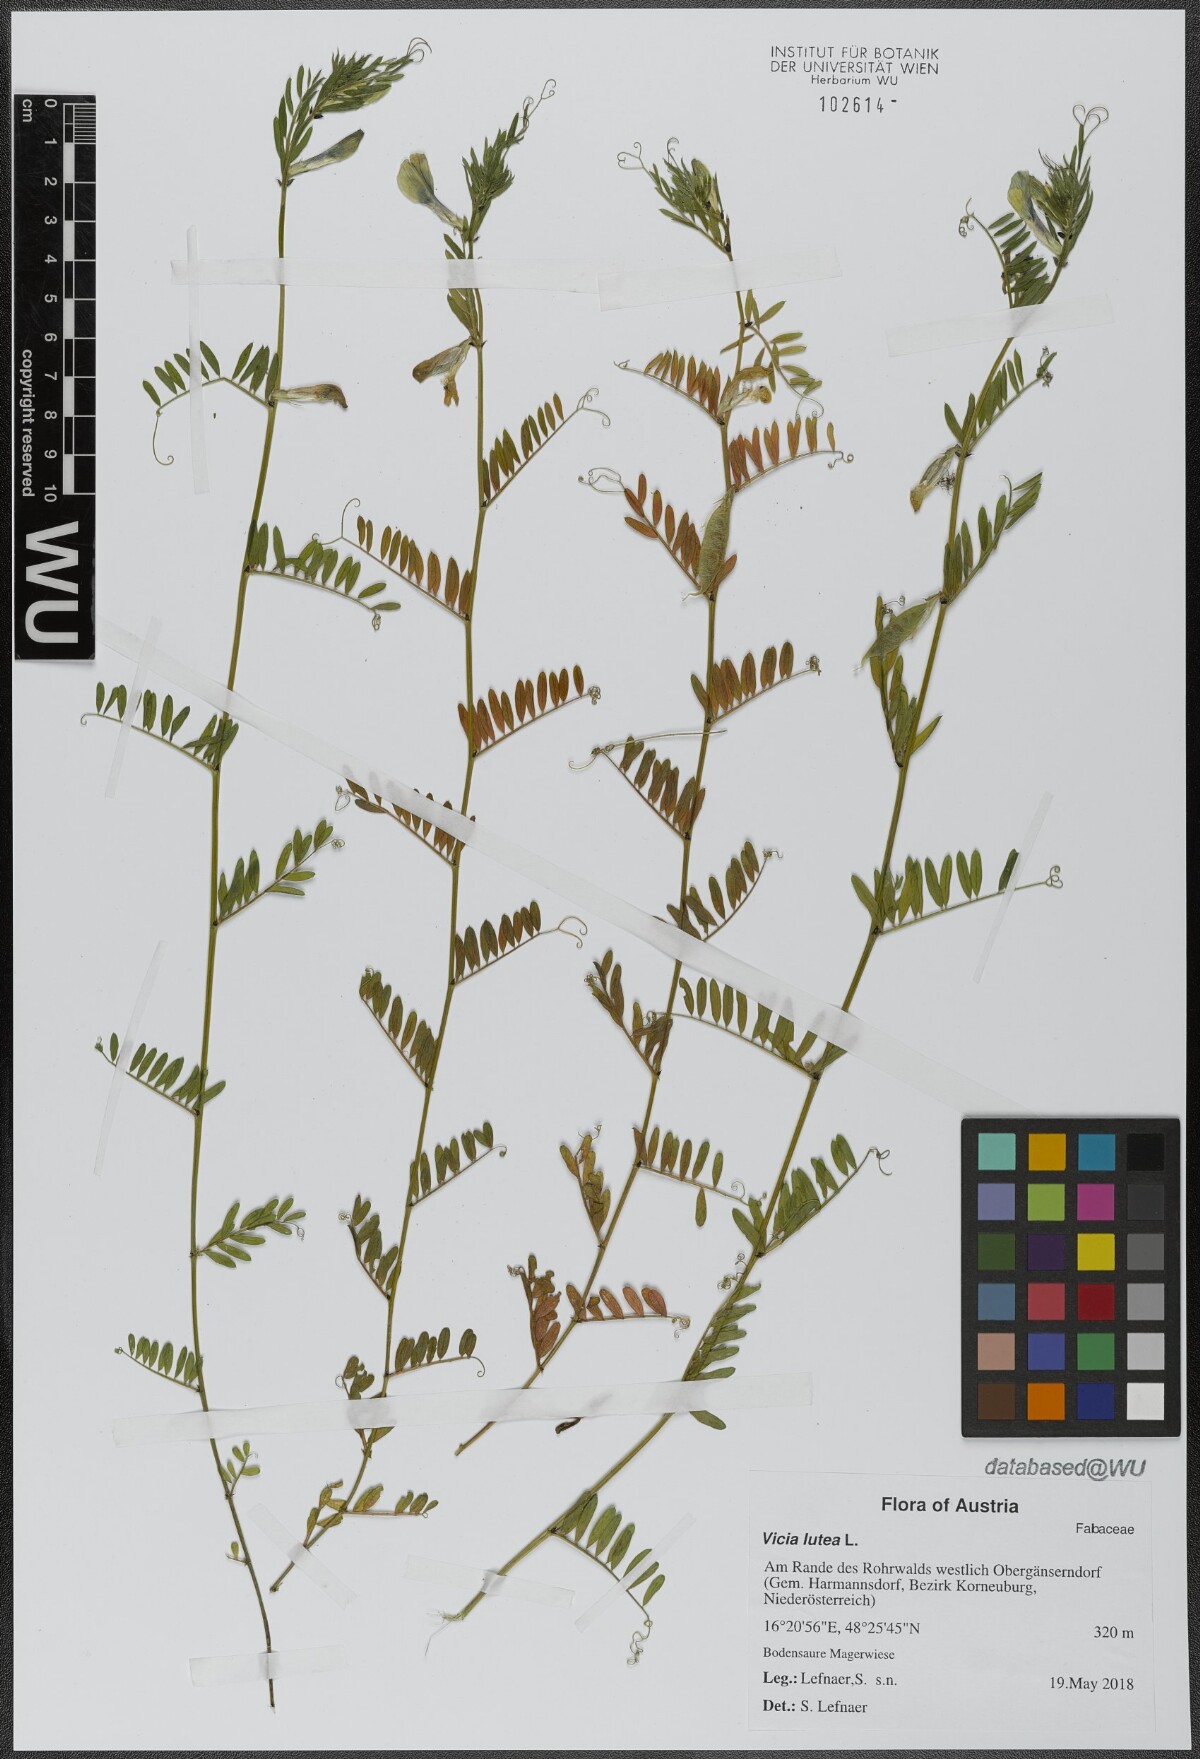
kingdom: Plantae
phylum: Tracheophyta
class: Magnoliopsida
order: Fabales
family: Fabaceae
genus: Vicia
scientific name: Vicia lutea
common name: Smooth yellow vetch
